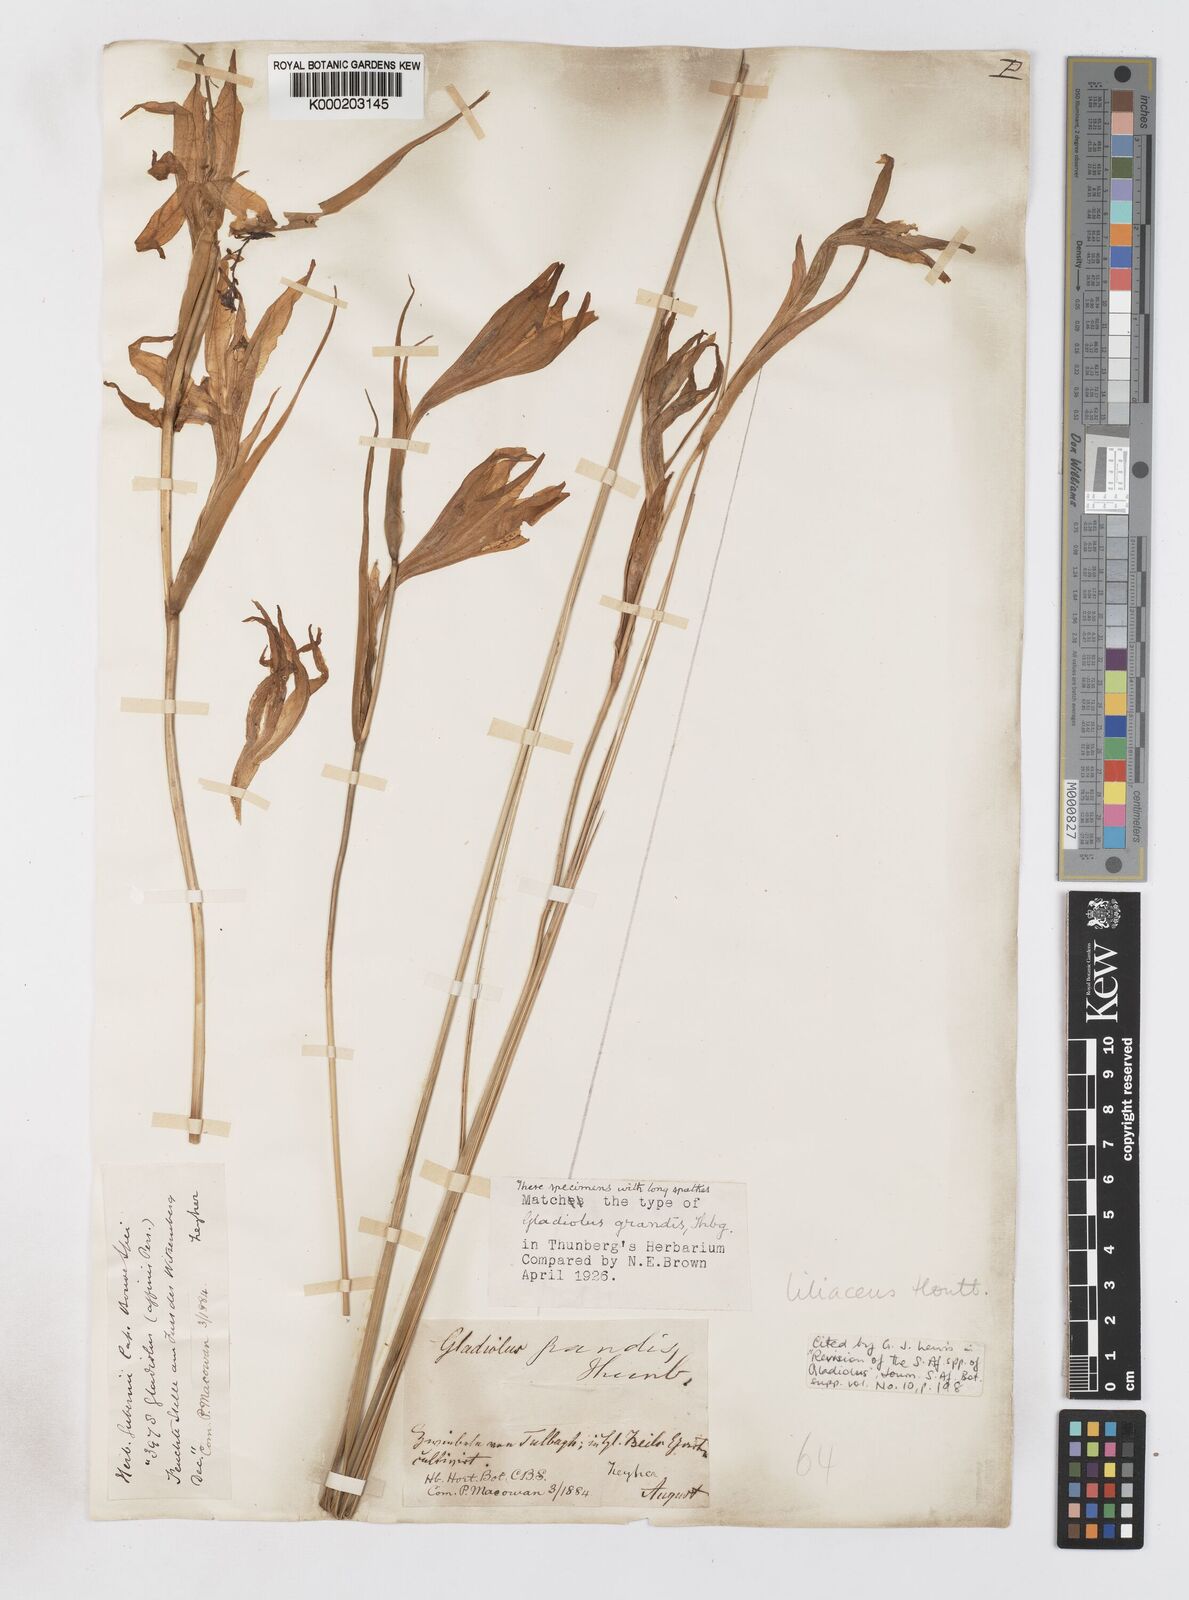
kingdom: Plantae
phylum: Tracheophyta
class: Liliopsida
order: Asparagales
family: Iridaceae
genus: Gladiolus
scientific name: Gladiolus liliaceus
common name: Large brown afrikaner
